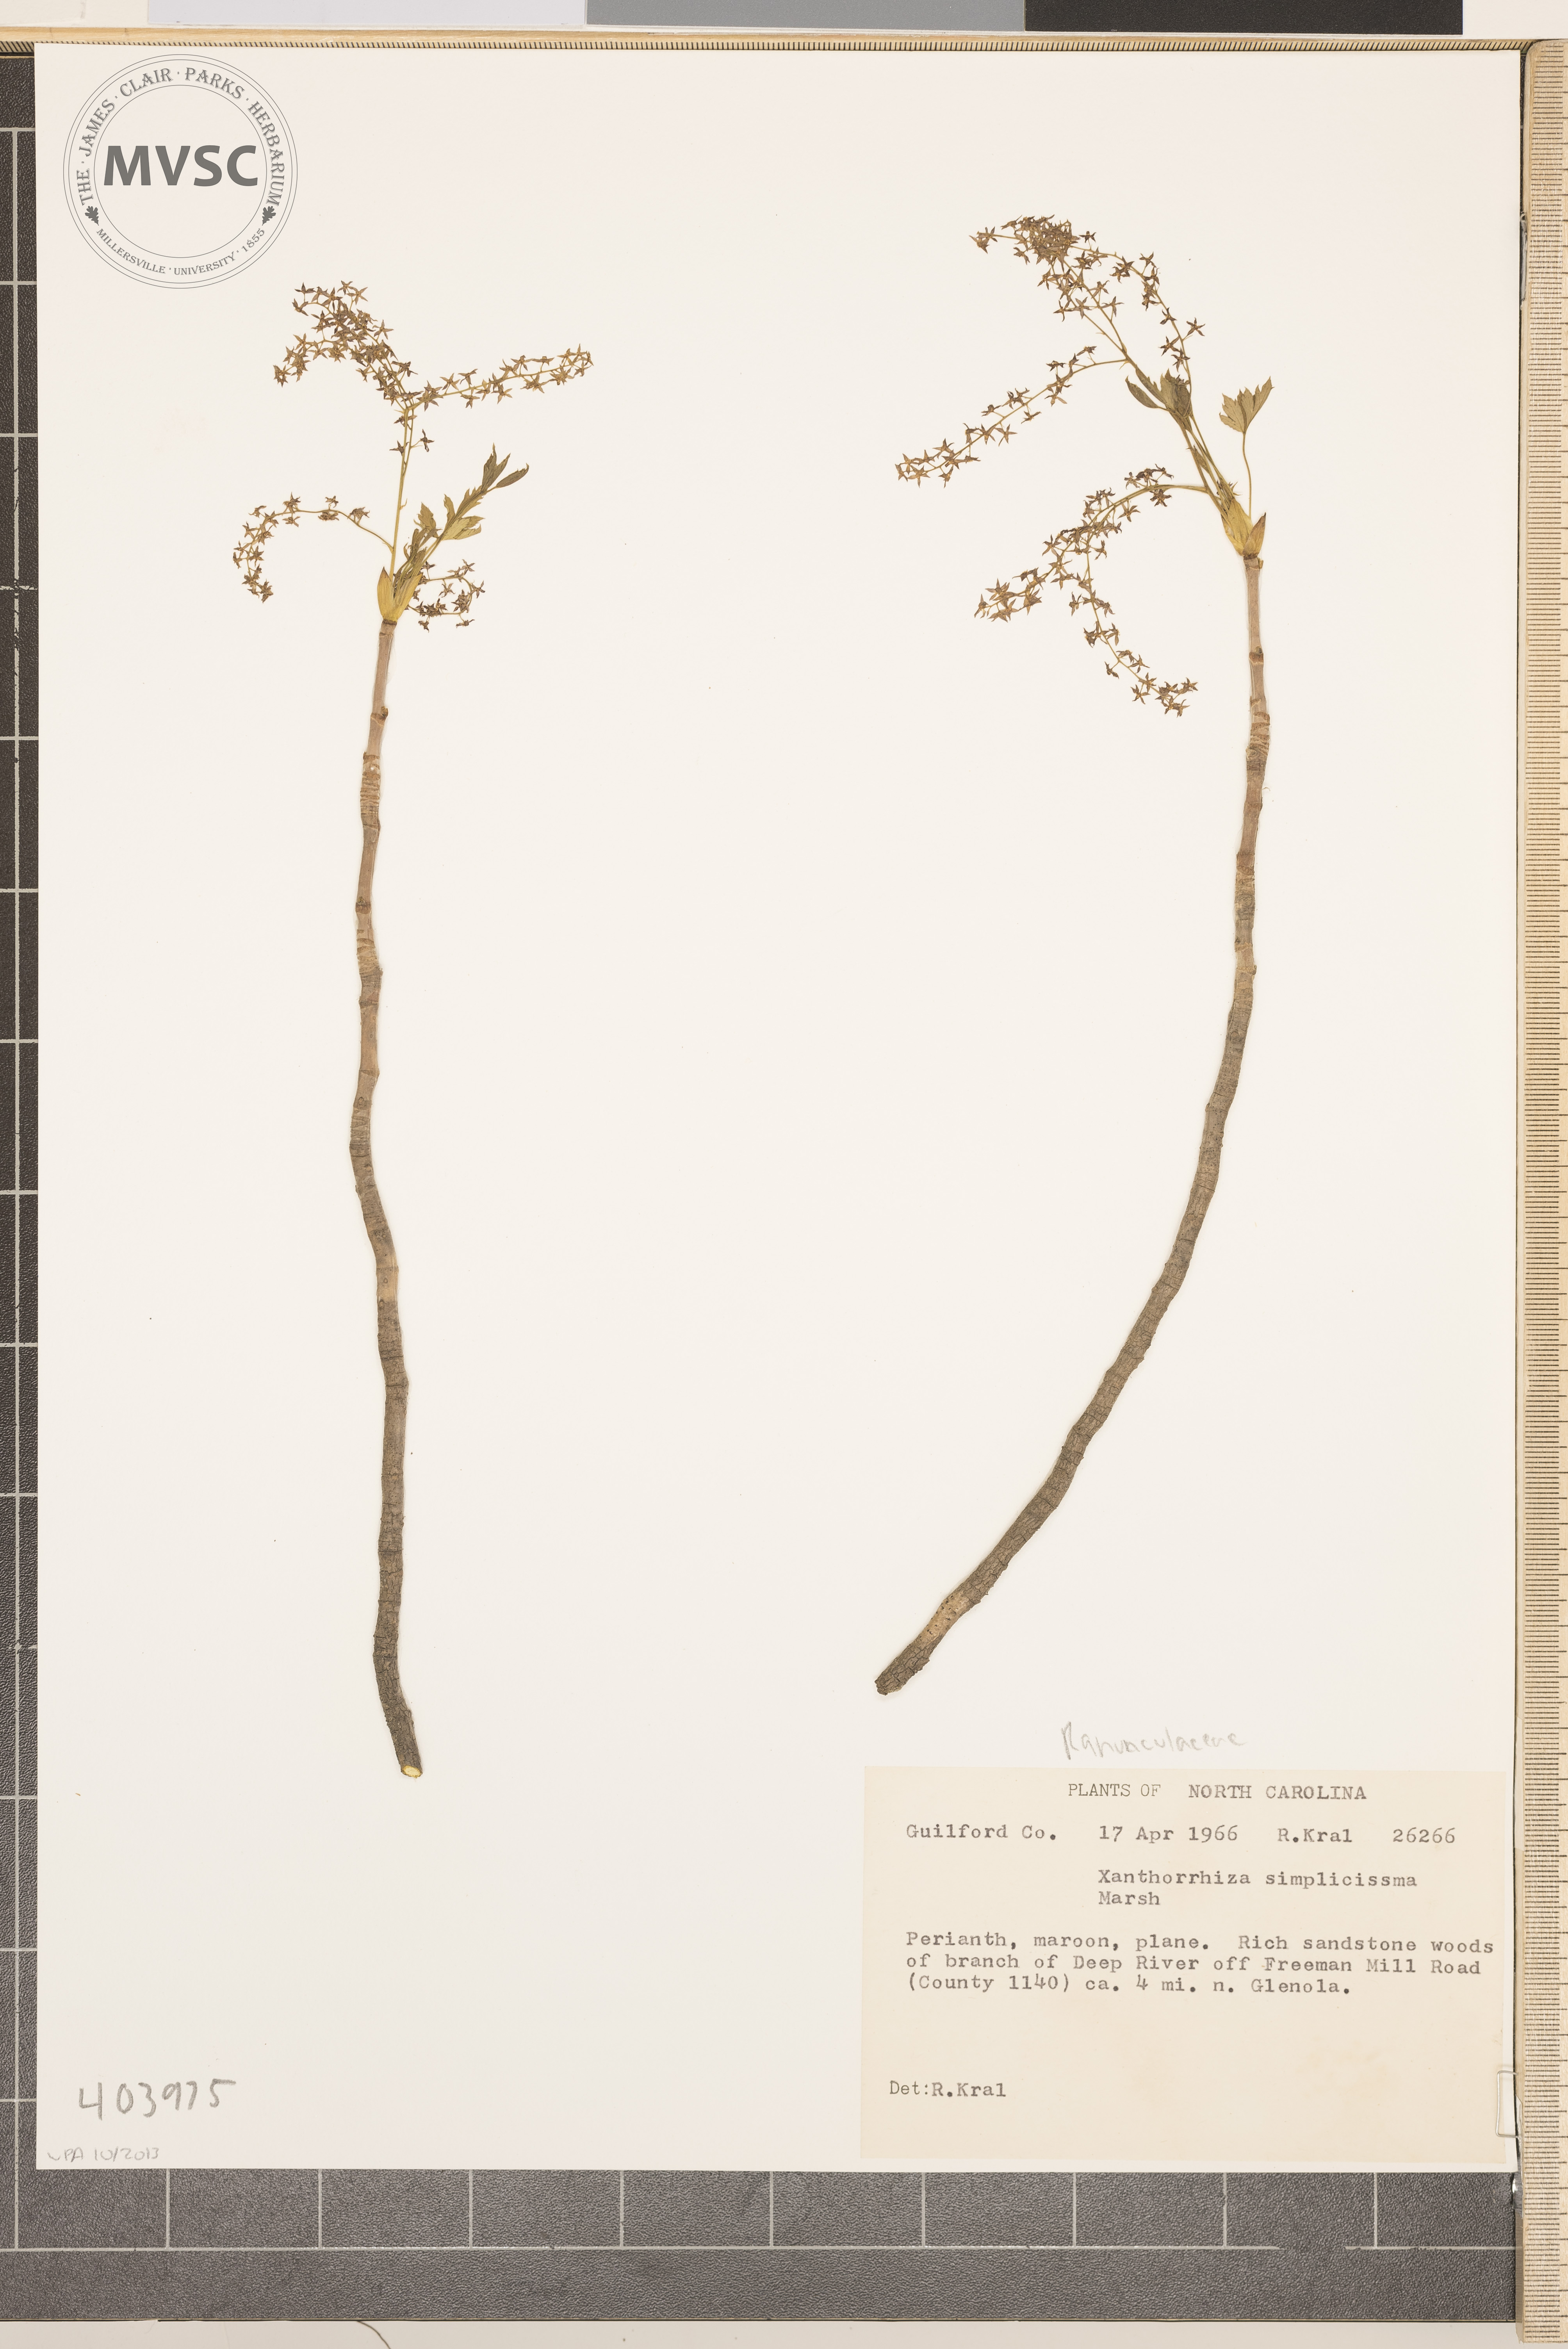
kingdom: Plantae
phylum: Tracheophyta
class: Magnoliopsida
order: Ranunculales
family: Ranunculaceae
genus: Xanthorhiza
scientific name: Xanthorhiza simplicissima
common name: Yellowroot
